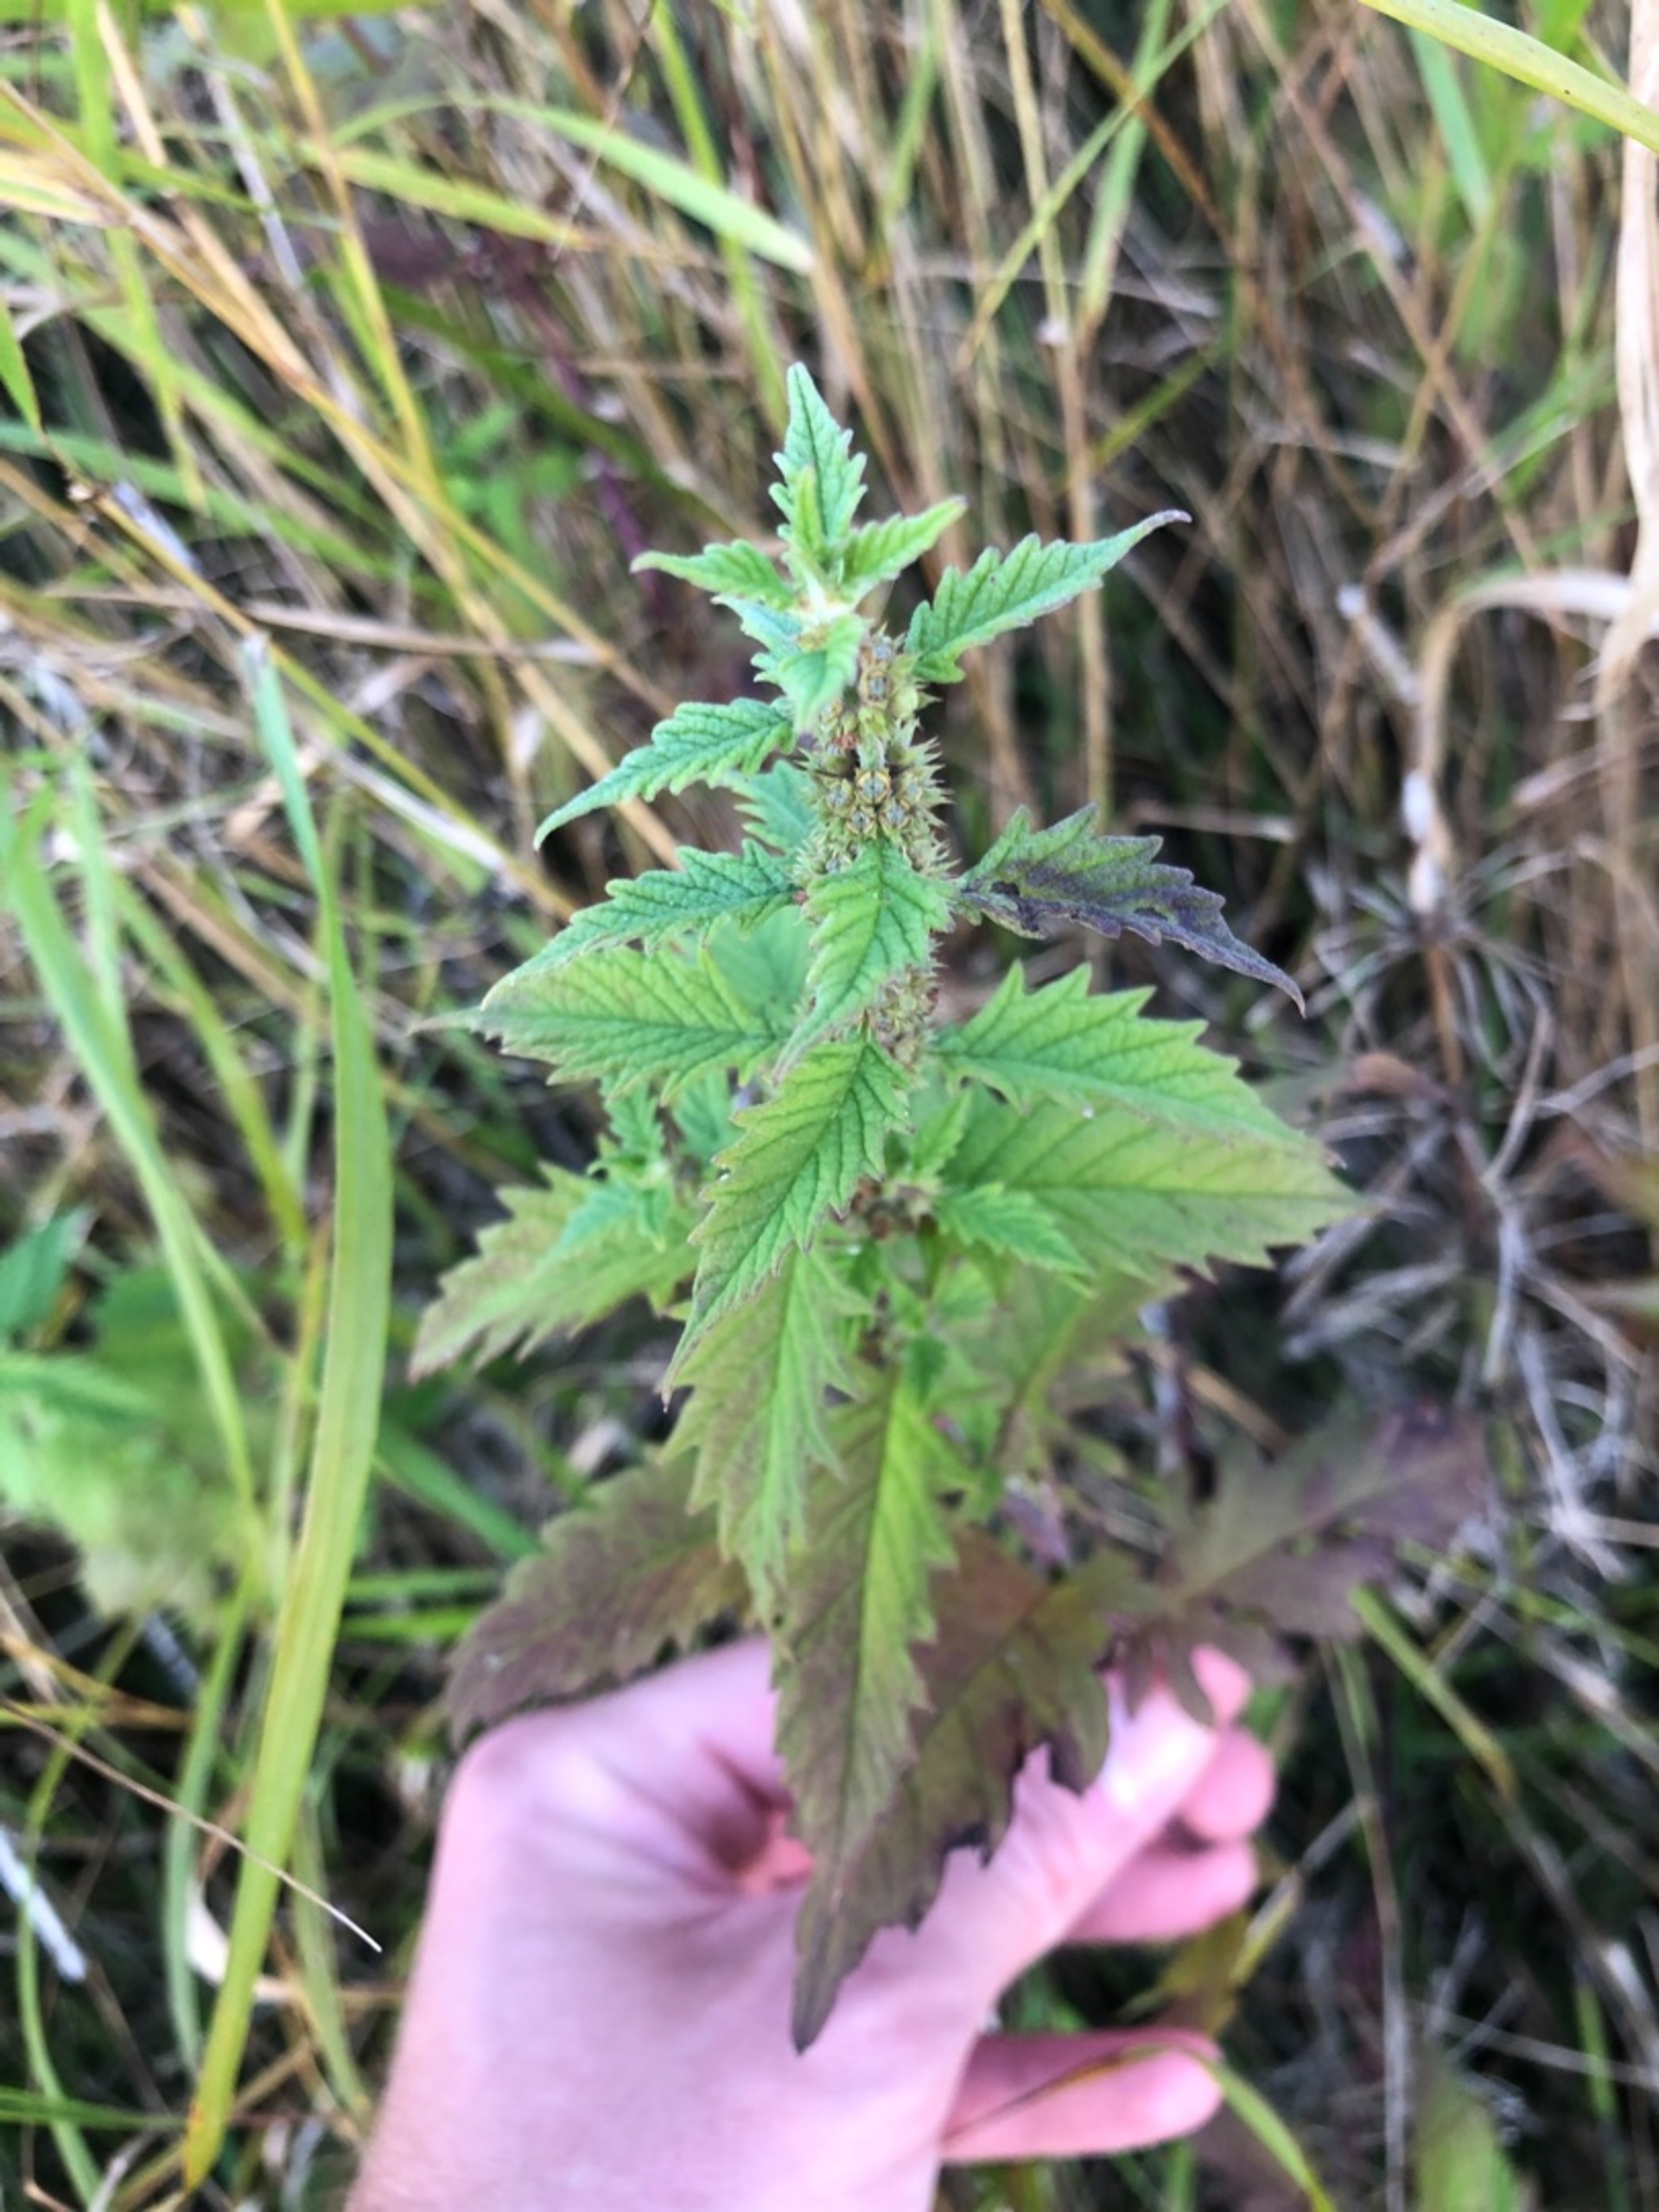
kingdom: Plantae
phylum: Tracheophyta
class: Magnoliopsida
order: Lamiales
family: Lamiaceae
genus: Lycopus
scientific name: Lycopus europaeus
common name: Sværtevæld
